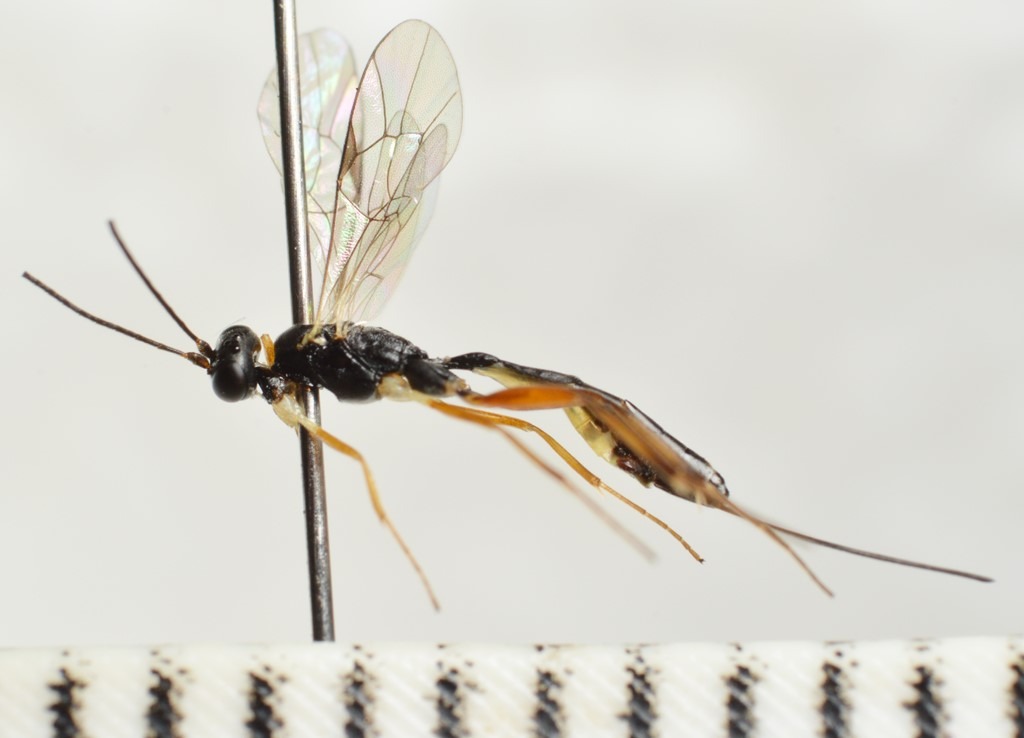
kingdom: Animalia
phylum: Arthropoda
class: Insecta
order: Hymenoptera
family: Ichneumonidae
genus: Leptocampoplex
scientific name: Leptocampoplex cremastoides
